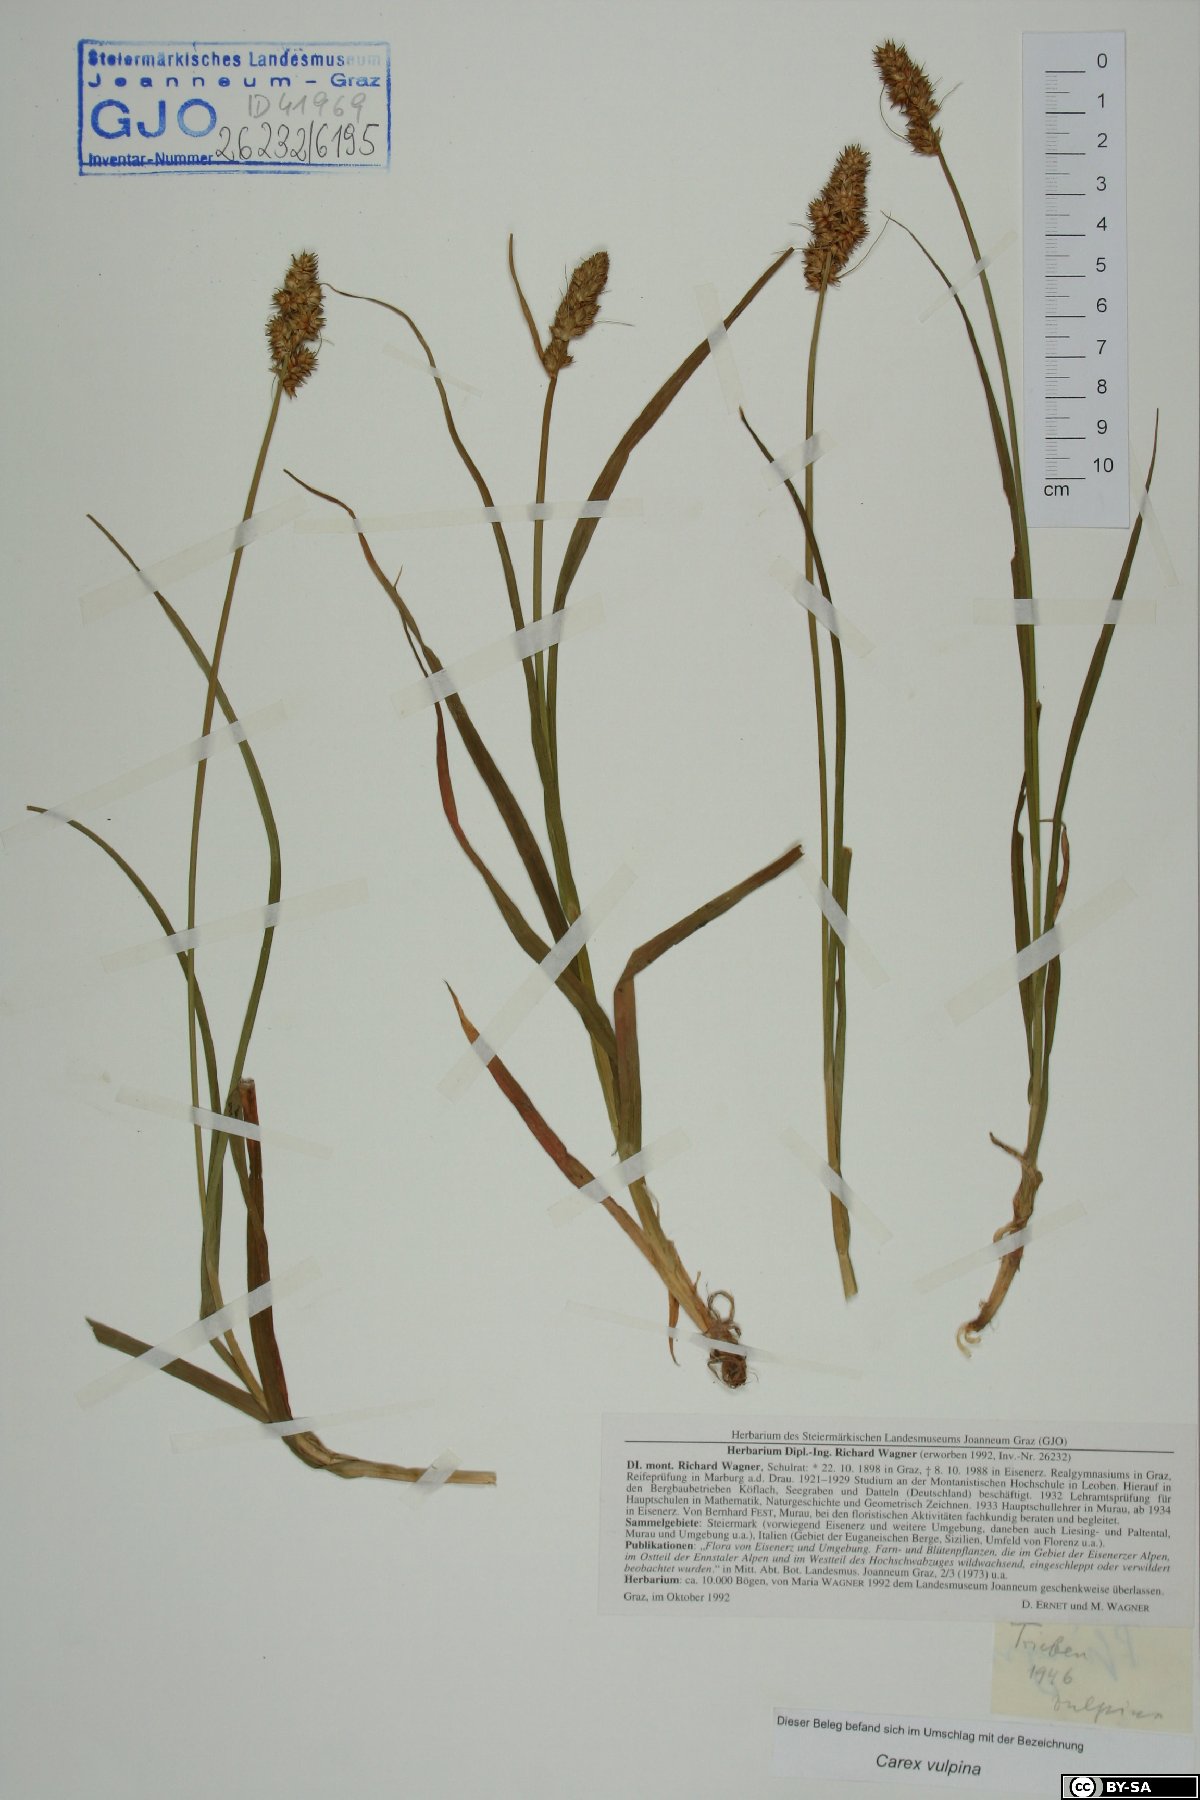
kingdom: Plantae
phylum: Tracheophyta
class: Liliopsida
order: Poales
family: Cyperaceae
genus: Carex
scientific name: Carex vulpina
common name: True fox-sedge
